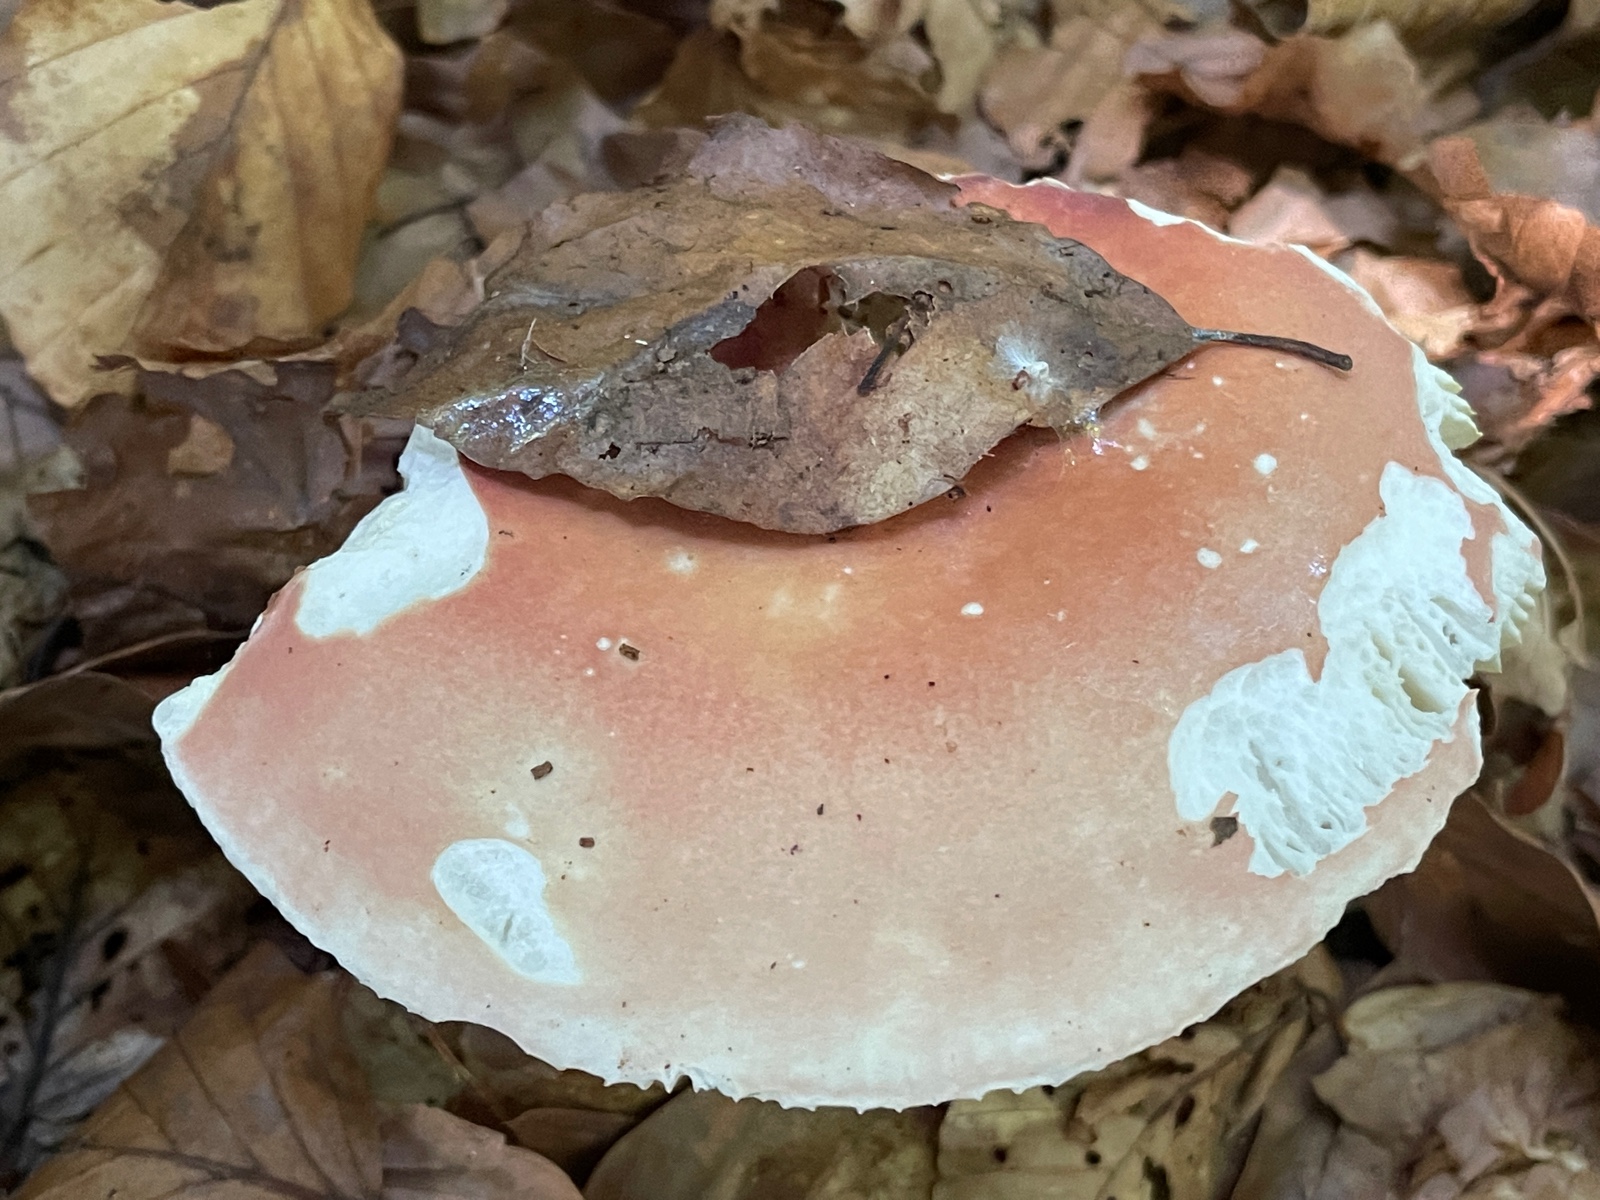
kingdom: Fungi
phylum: Basidiomycota
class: Agaricomycetes
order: Russulales
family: Russulaceae
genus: Russula
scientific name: Russula aurora
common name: rosa skørhat
